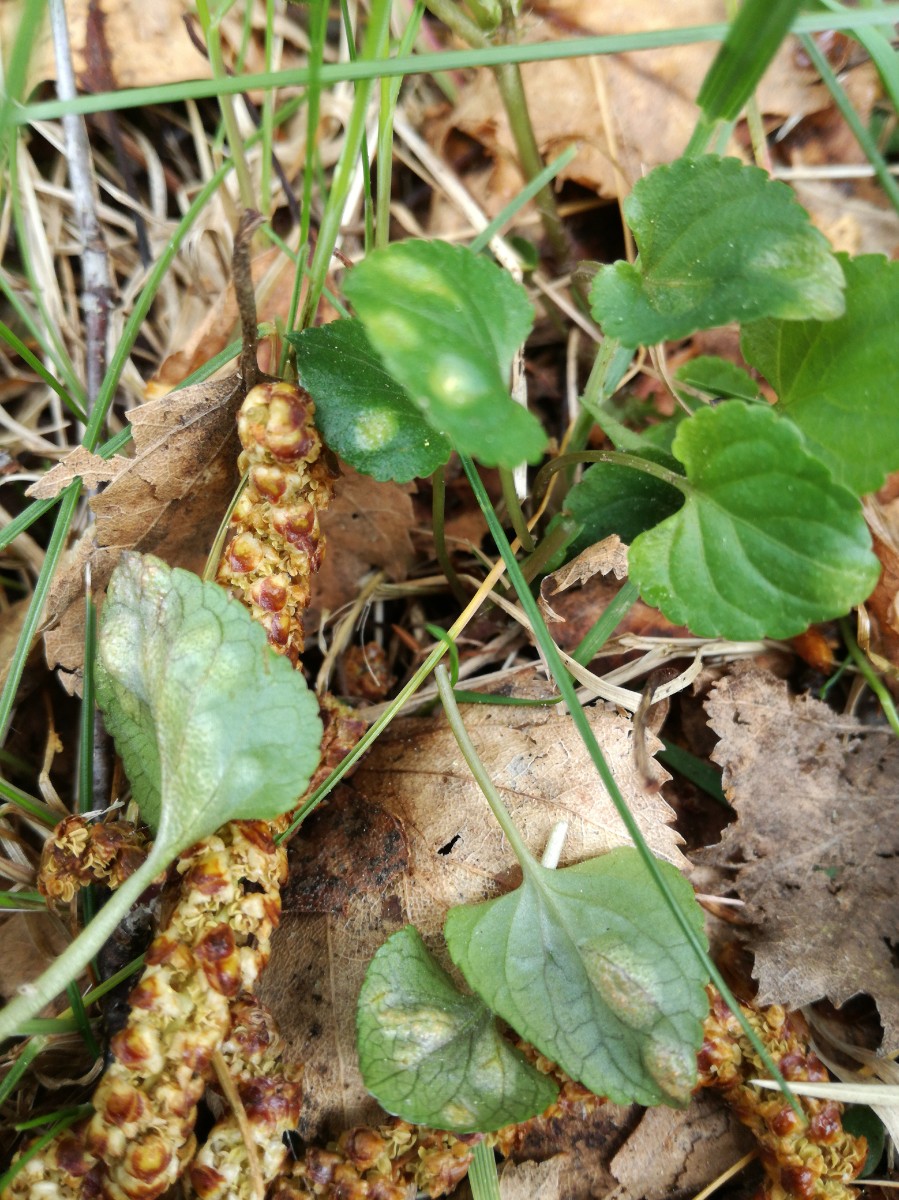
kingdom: Fungi
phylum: Basidiomycota
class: Pucciniomycetes
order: Pucciniales
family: Pucciniaceae
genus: Puccinia
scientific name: Puccinia violae
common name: viol-tvecellerust
